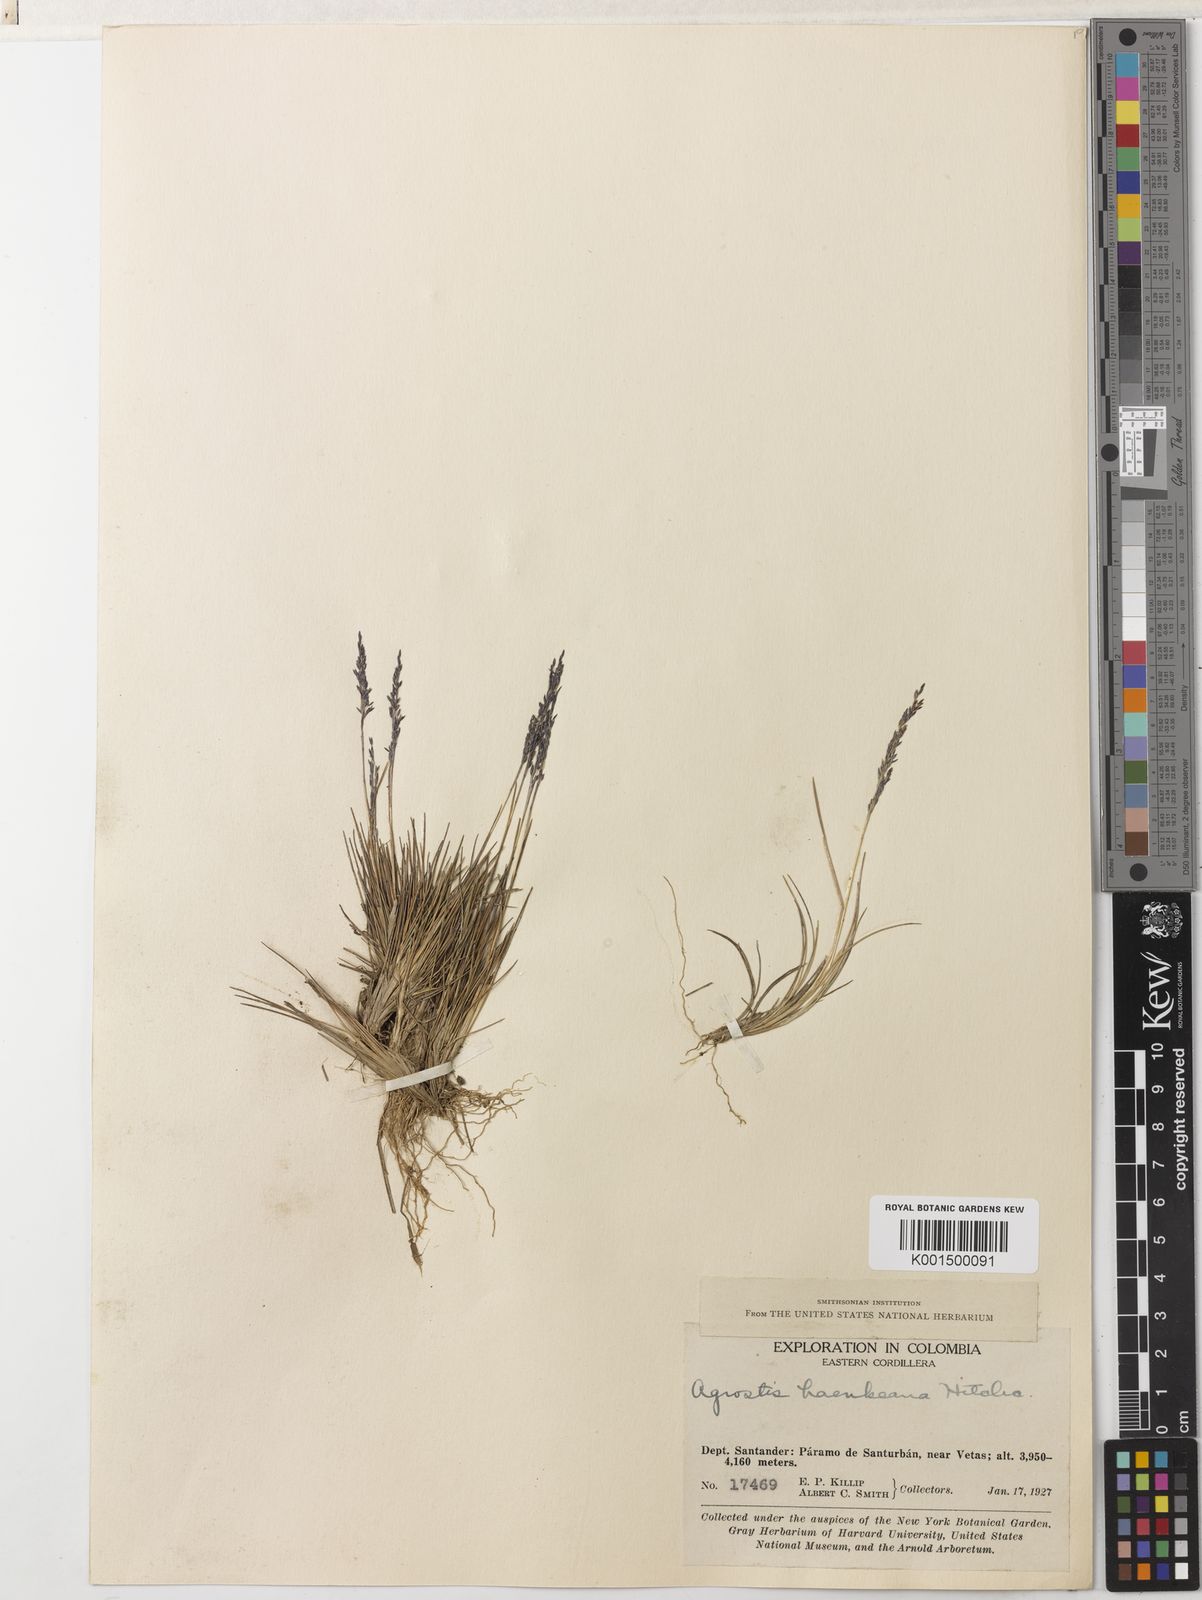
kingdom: Plantae
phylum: Tracheophyta
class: Liliopsida
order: Poales
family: Poaceae
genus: Podagrostis
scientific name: Podagrostis trichodes
